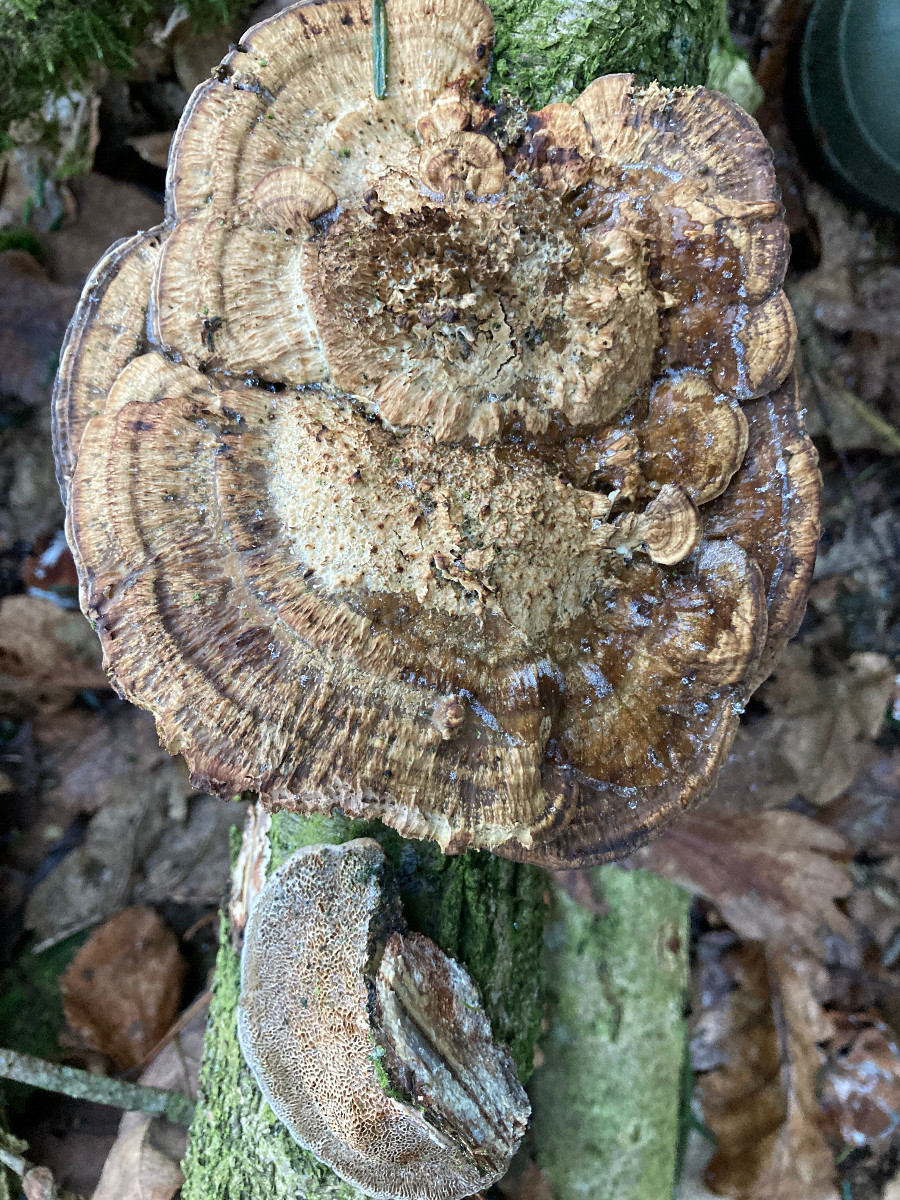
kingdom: Fungi
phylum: Basidiomycota
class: Agaricomycetes
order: Polyporales
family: Polyporaceae
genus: Daedaleopsis
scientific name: Daedaleopsis confragosa
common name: rødmende læderporesvamp
